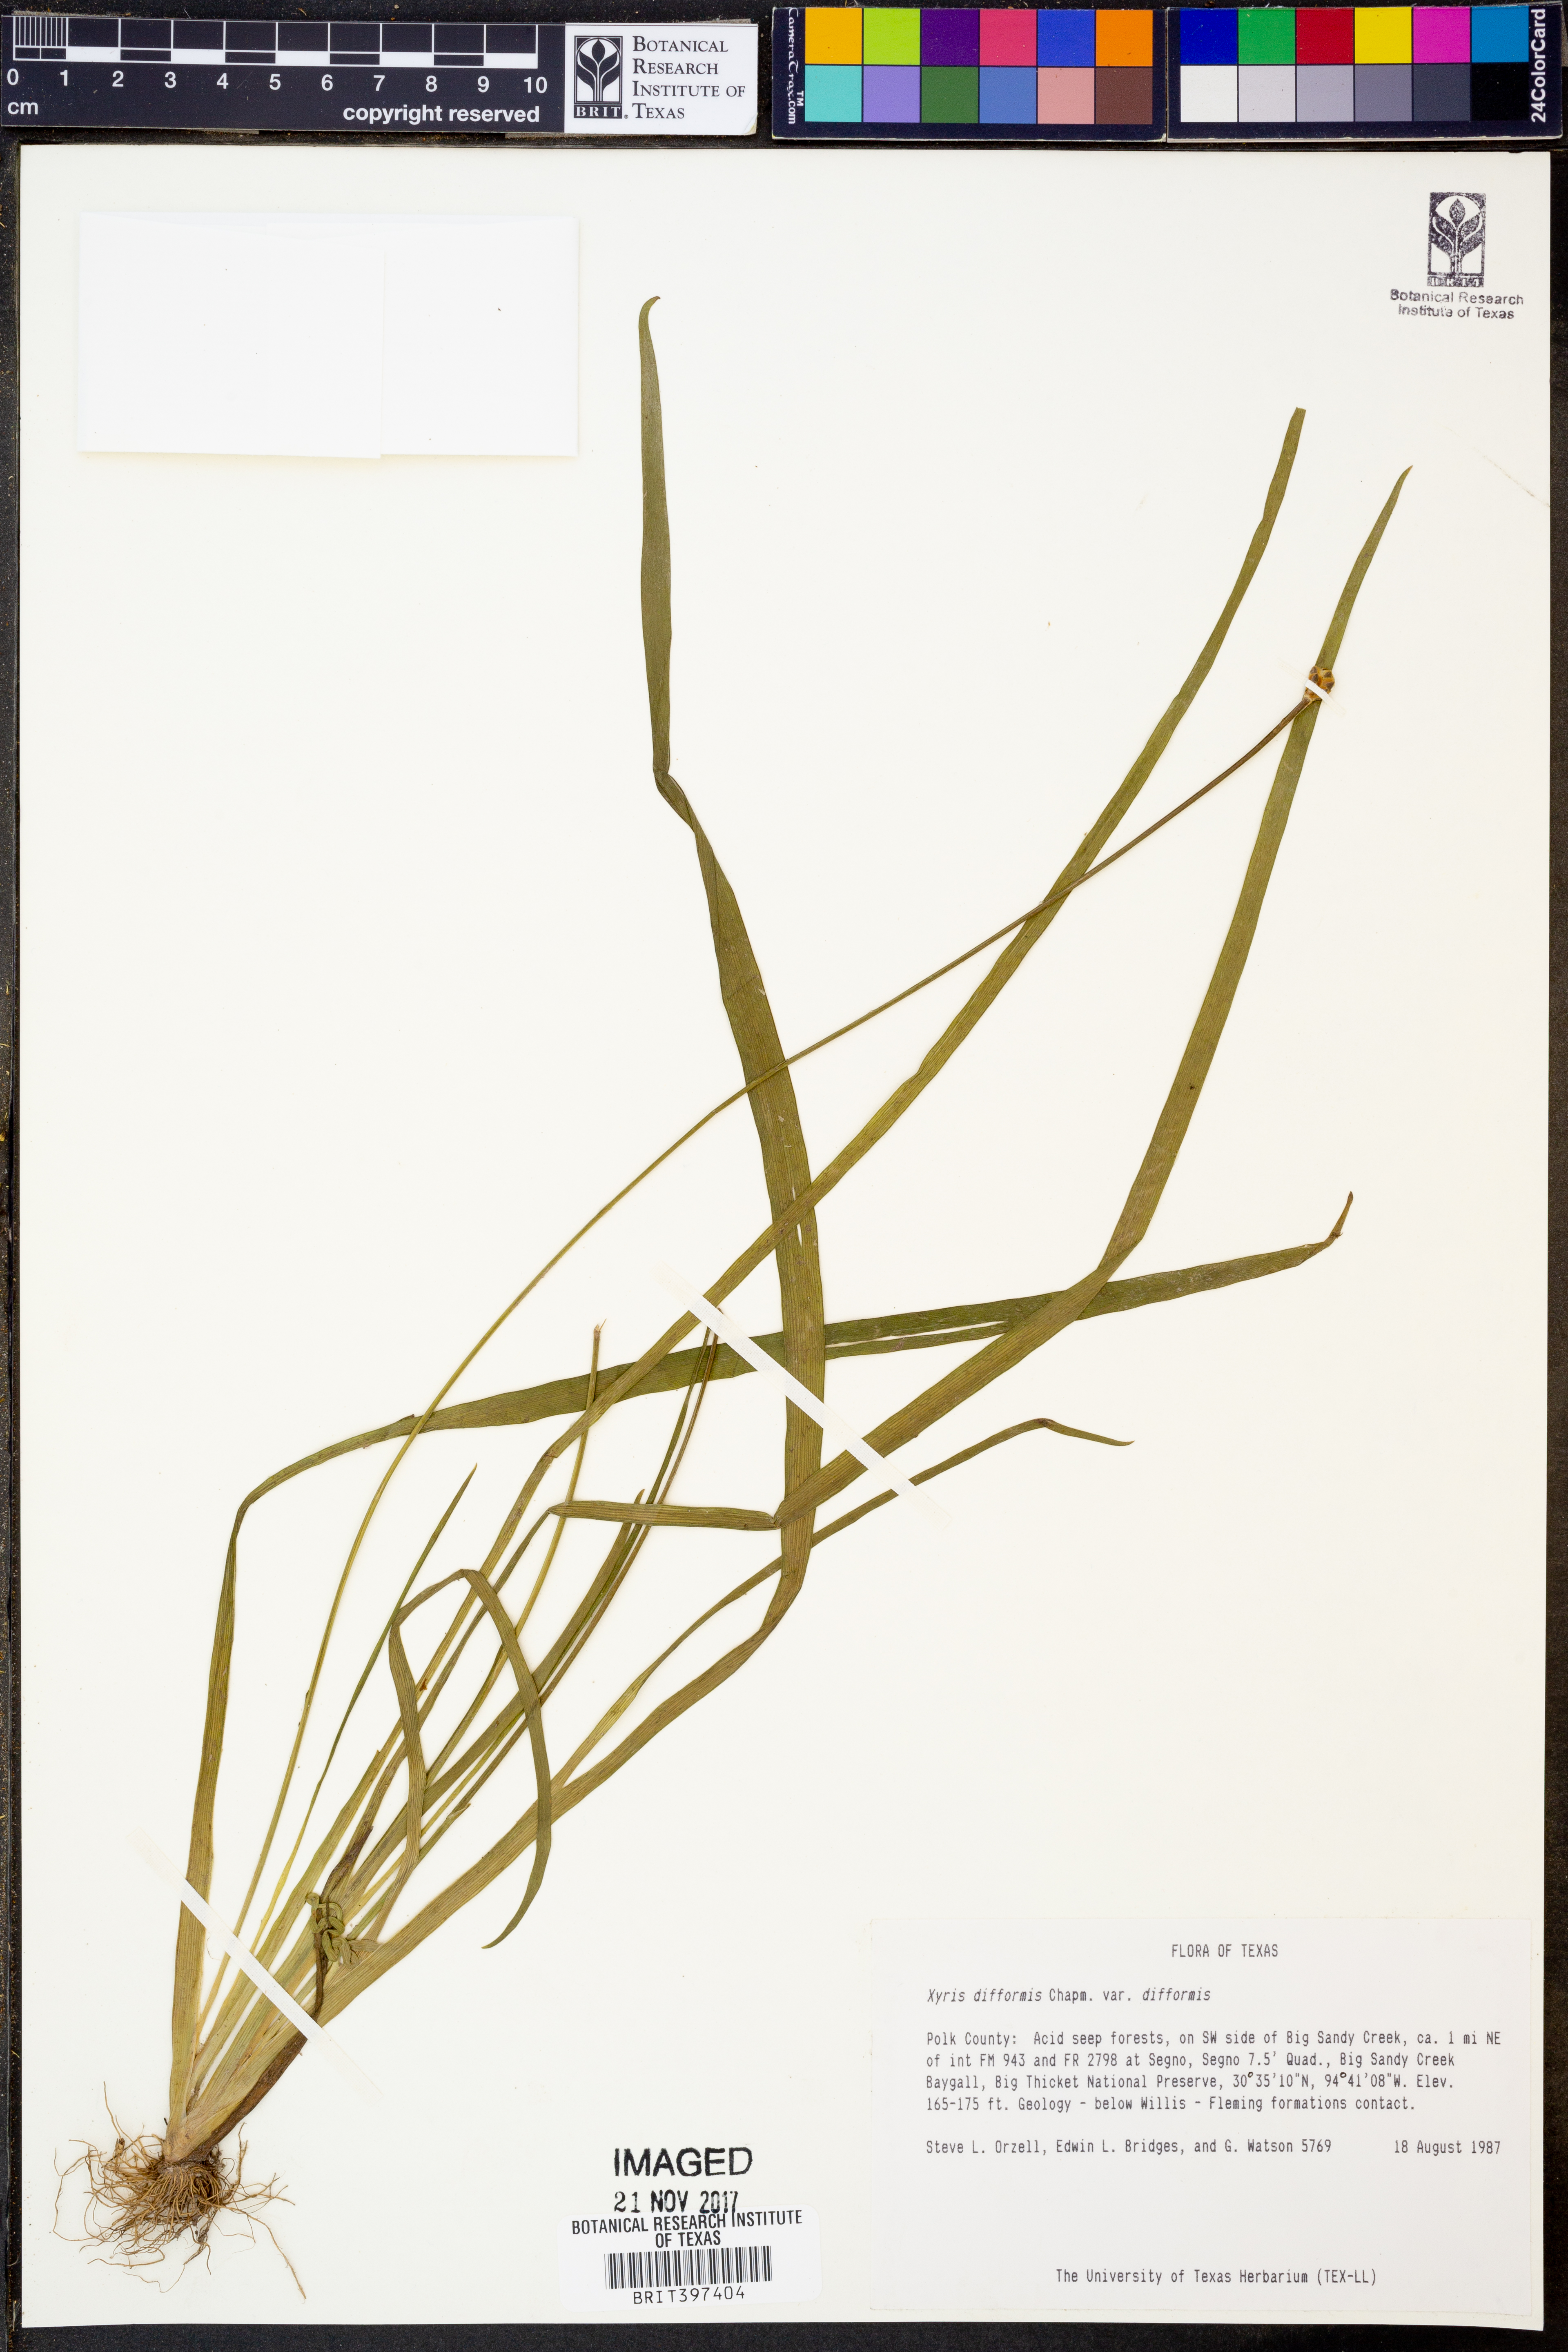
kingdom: Plantae
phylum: Tracheophyta
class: Liliopsida
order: Poales
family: Xyridaceae
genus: Xyris
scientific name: Xyris difformis
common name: Bog yellow-eyed-grass
